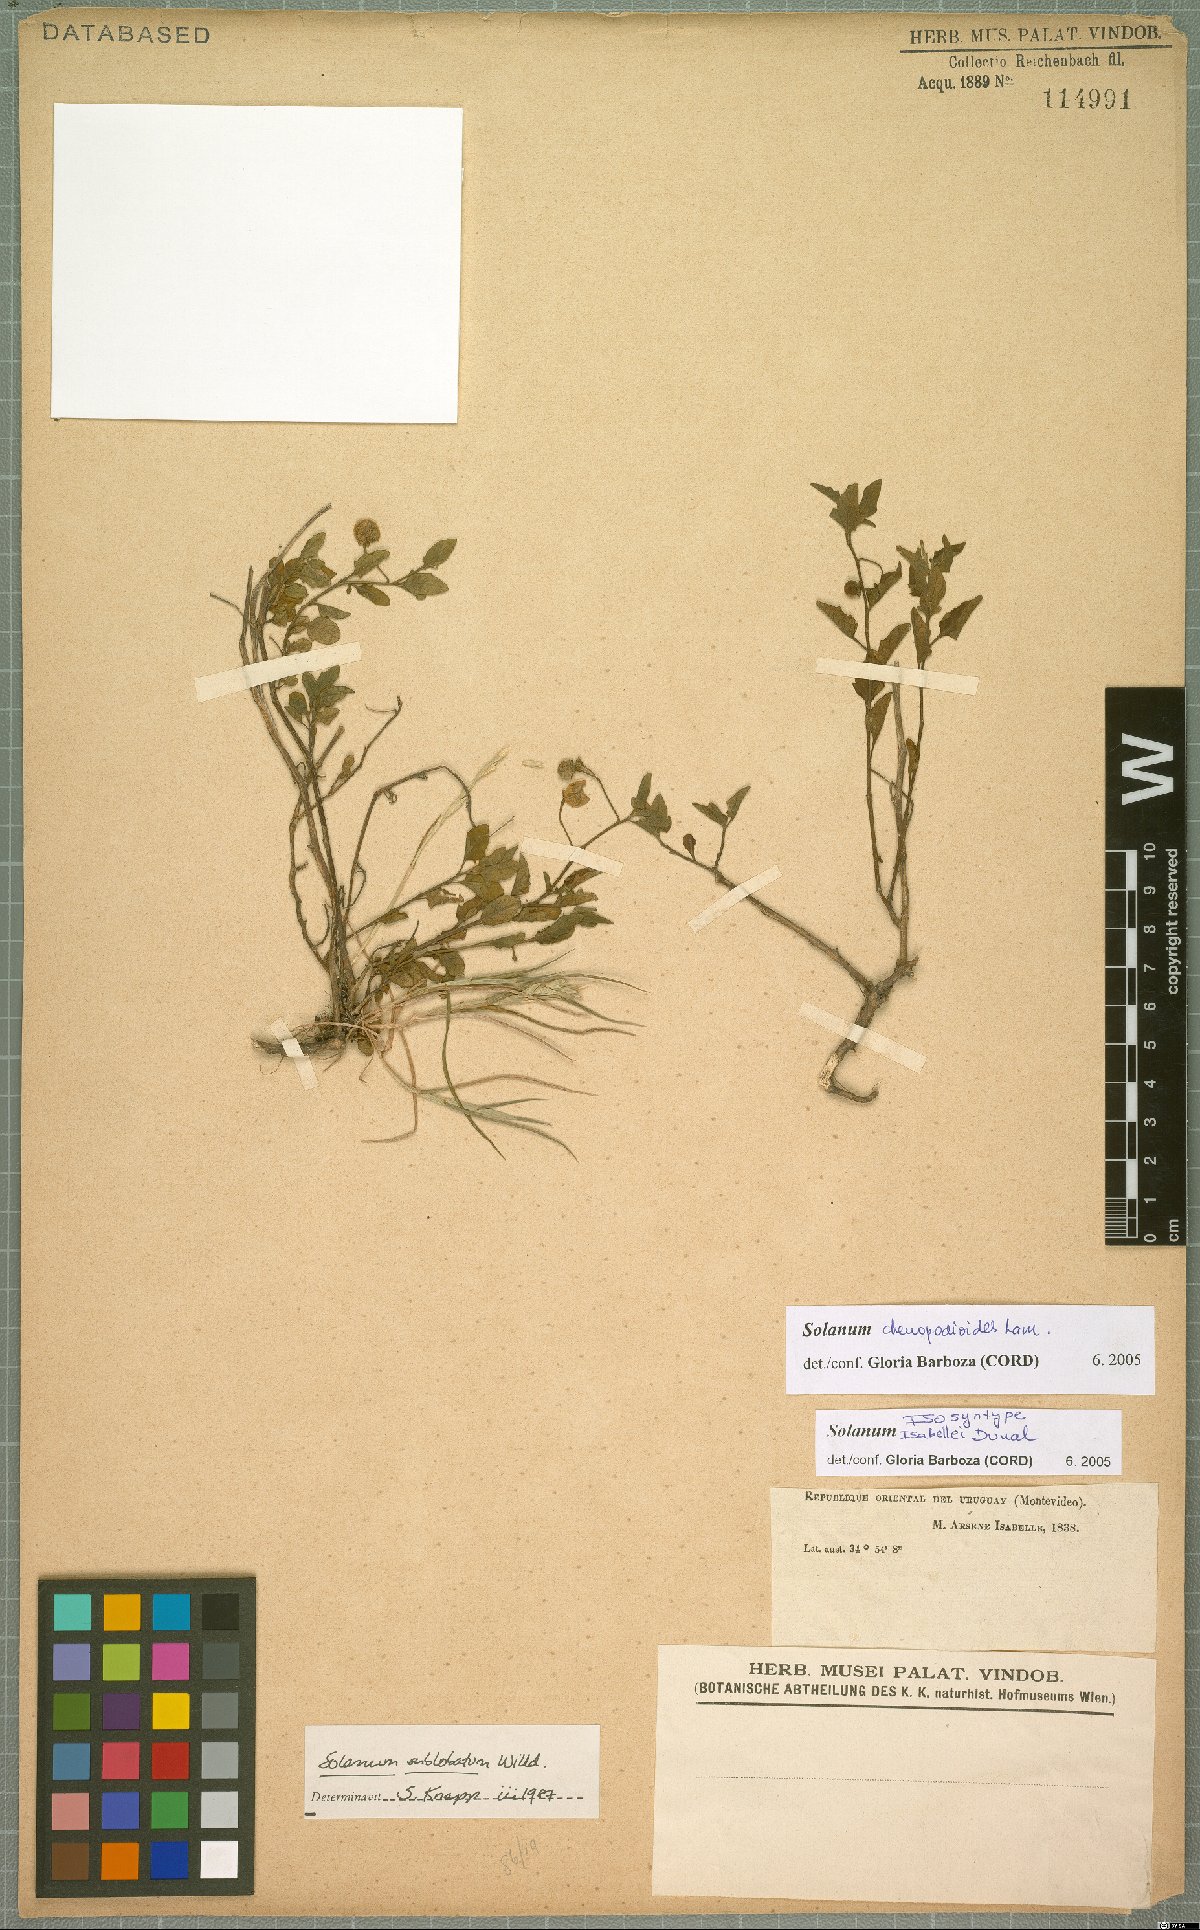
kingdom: Plantae
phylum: Tracheophyta
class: Magnoliopsida
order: Solanales
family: Solanaceae
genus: Solanum
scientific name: Solanum chenopodioides
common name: Tall nightshade
